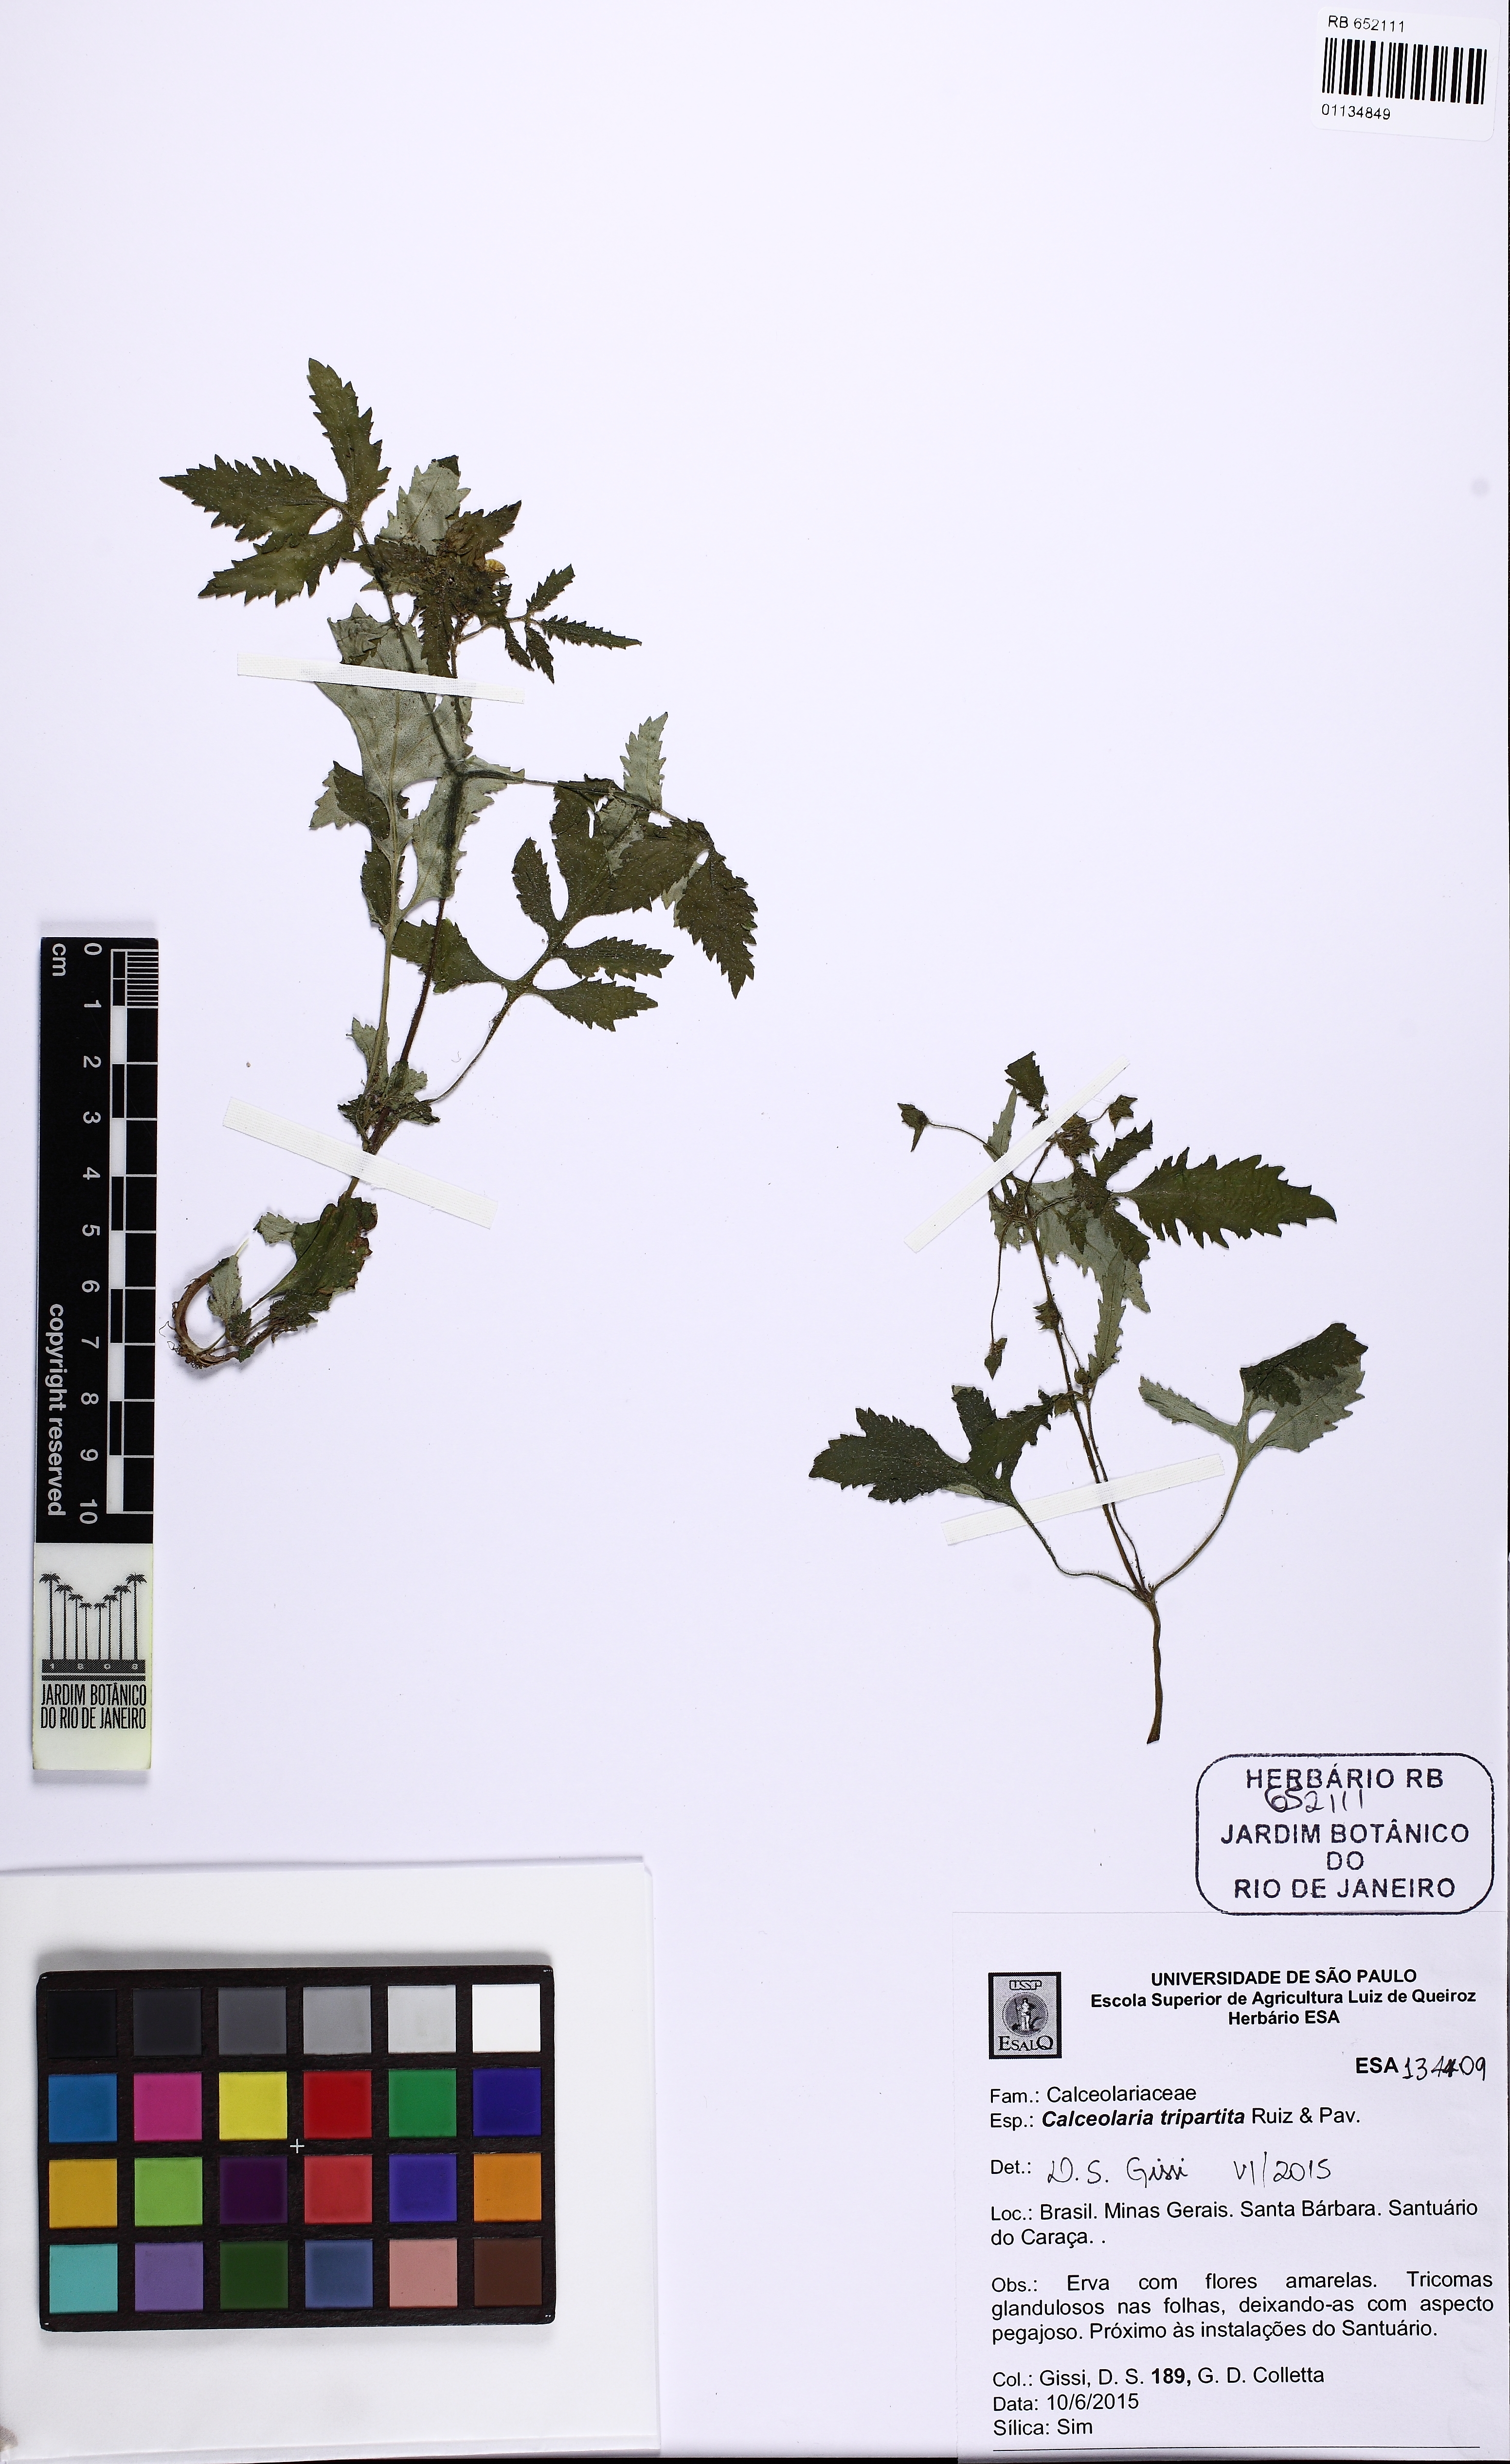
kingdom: Plantae
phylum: Tracheophyta
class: Magnoliopsida
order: Lamiales
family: Calceolariaceae
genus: Calceolaria
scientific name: Calceolaria tripartita
